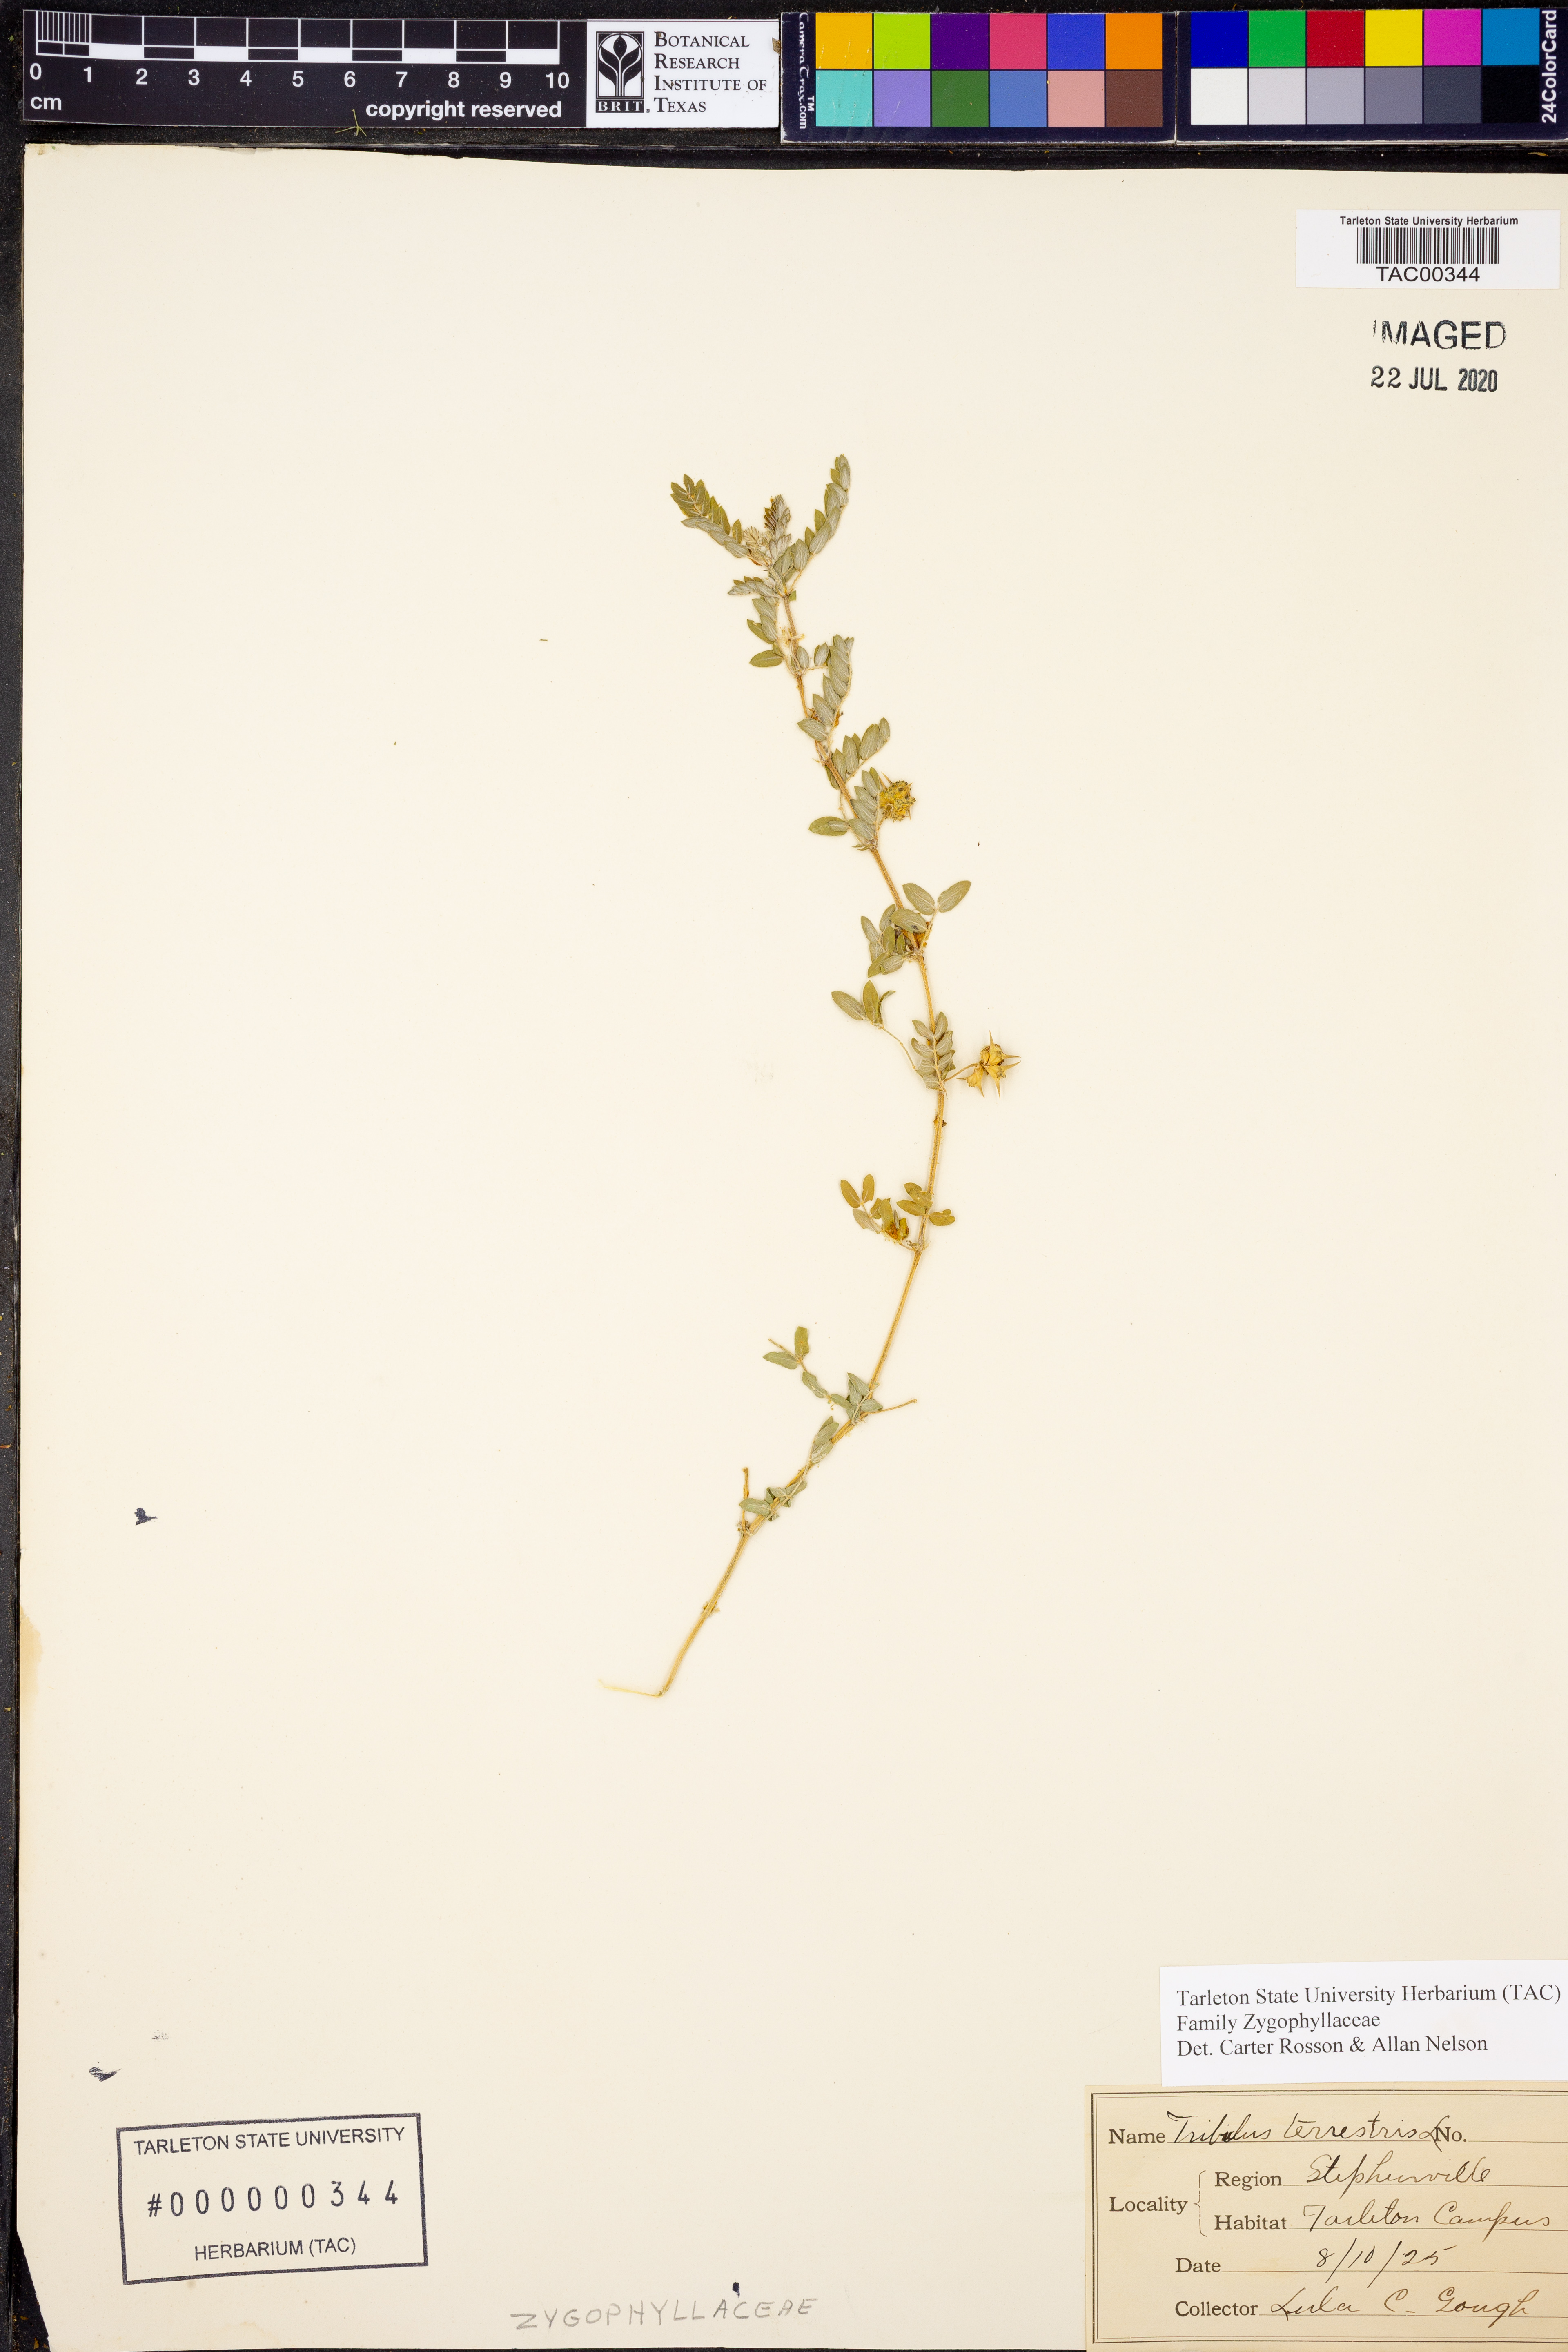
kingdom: Plantae
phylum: Tracheophyta
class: Magnoliopsida
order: Zygophyllales
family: Zygophyllaceae
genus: Tribulus
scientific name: Tribulus terrestris
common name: Puncturevine
